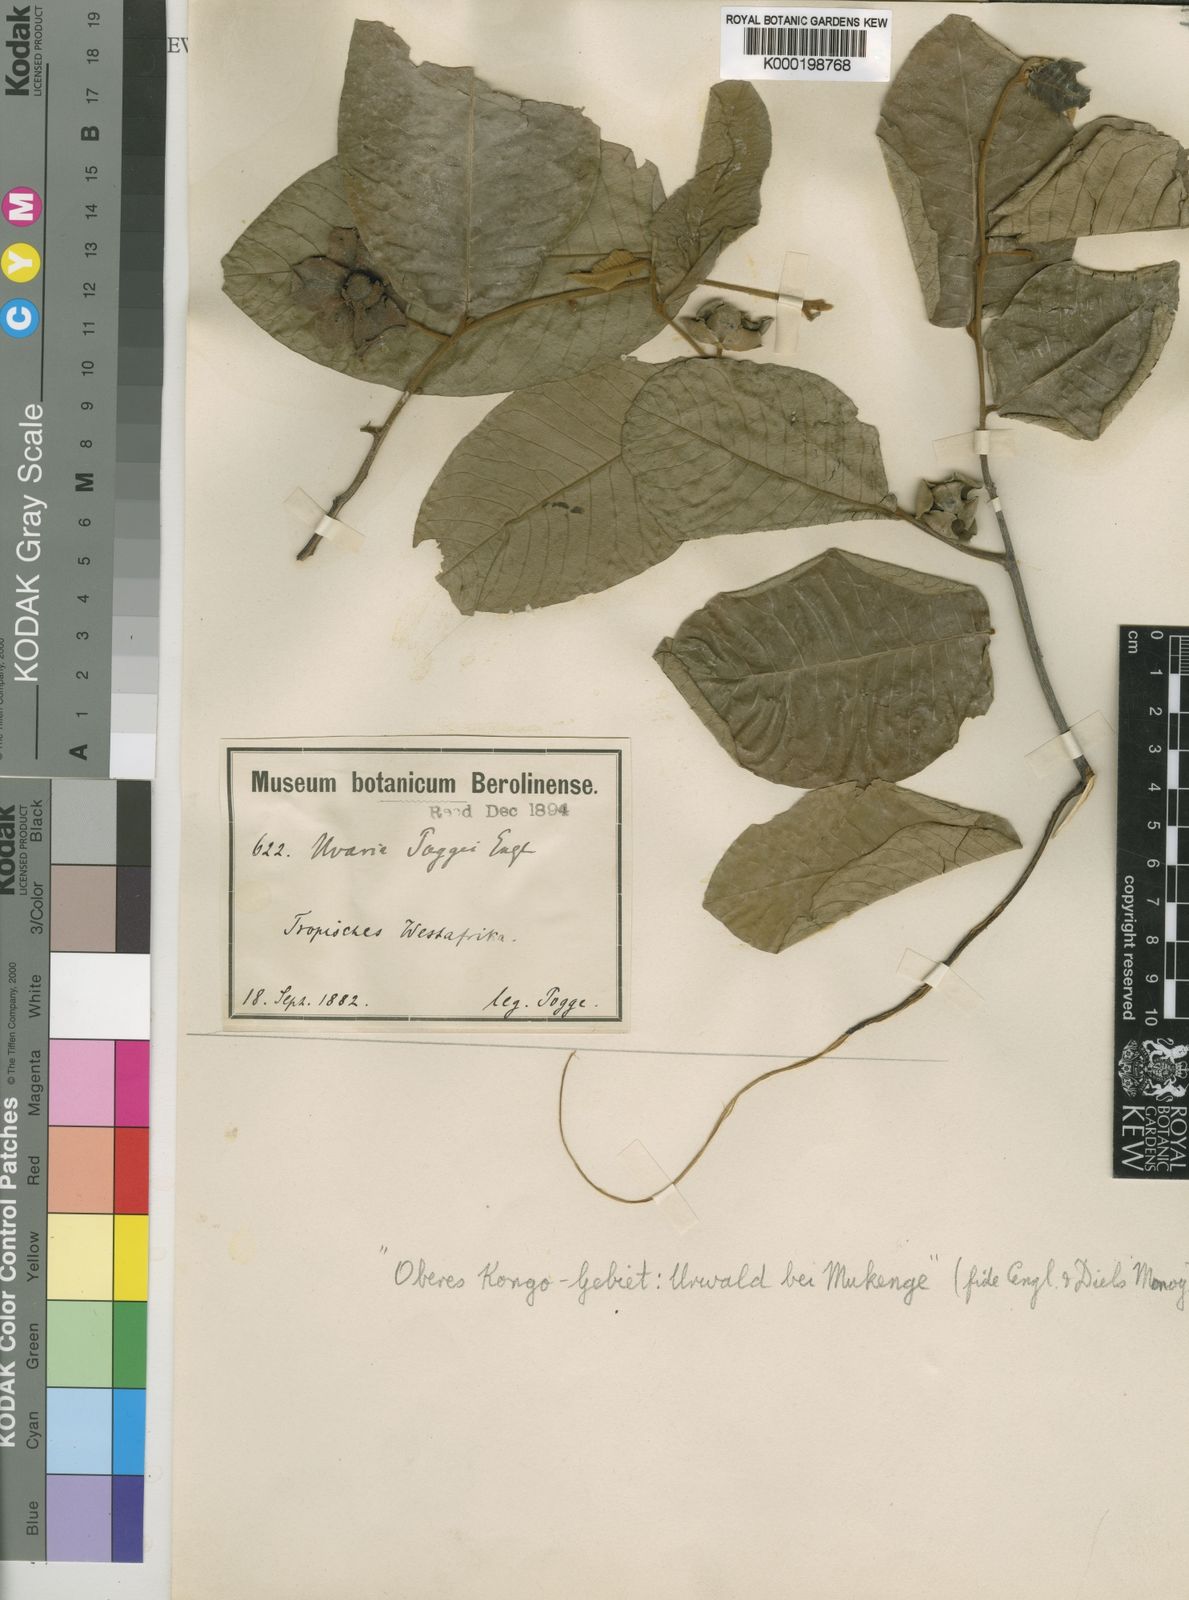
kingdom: Plantae
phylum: Tracheophyta
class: Magnoliopsida
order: Magnoliales
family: Annonaceae
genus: Uvaria
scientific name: Uvaria poggei
